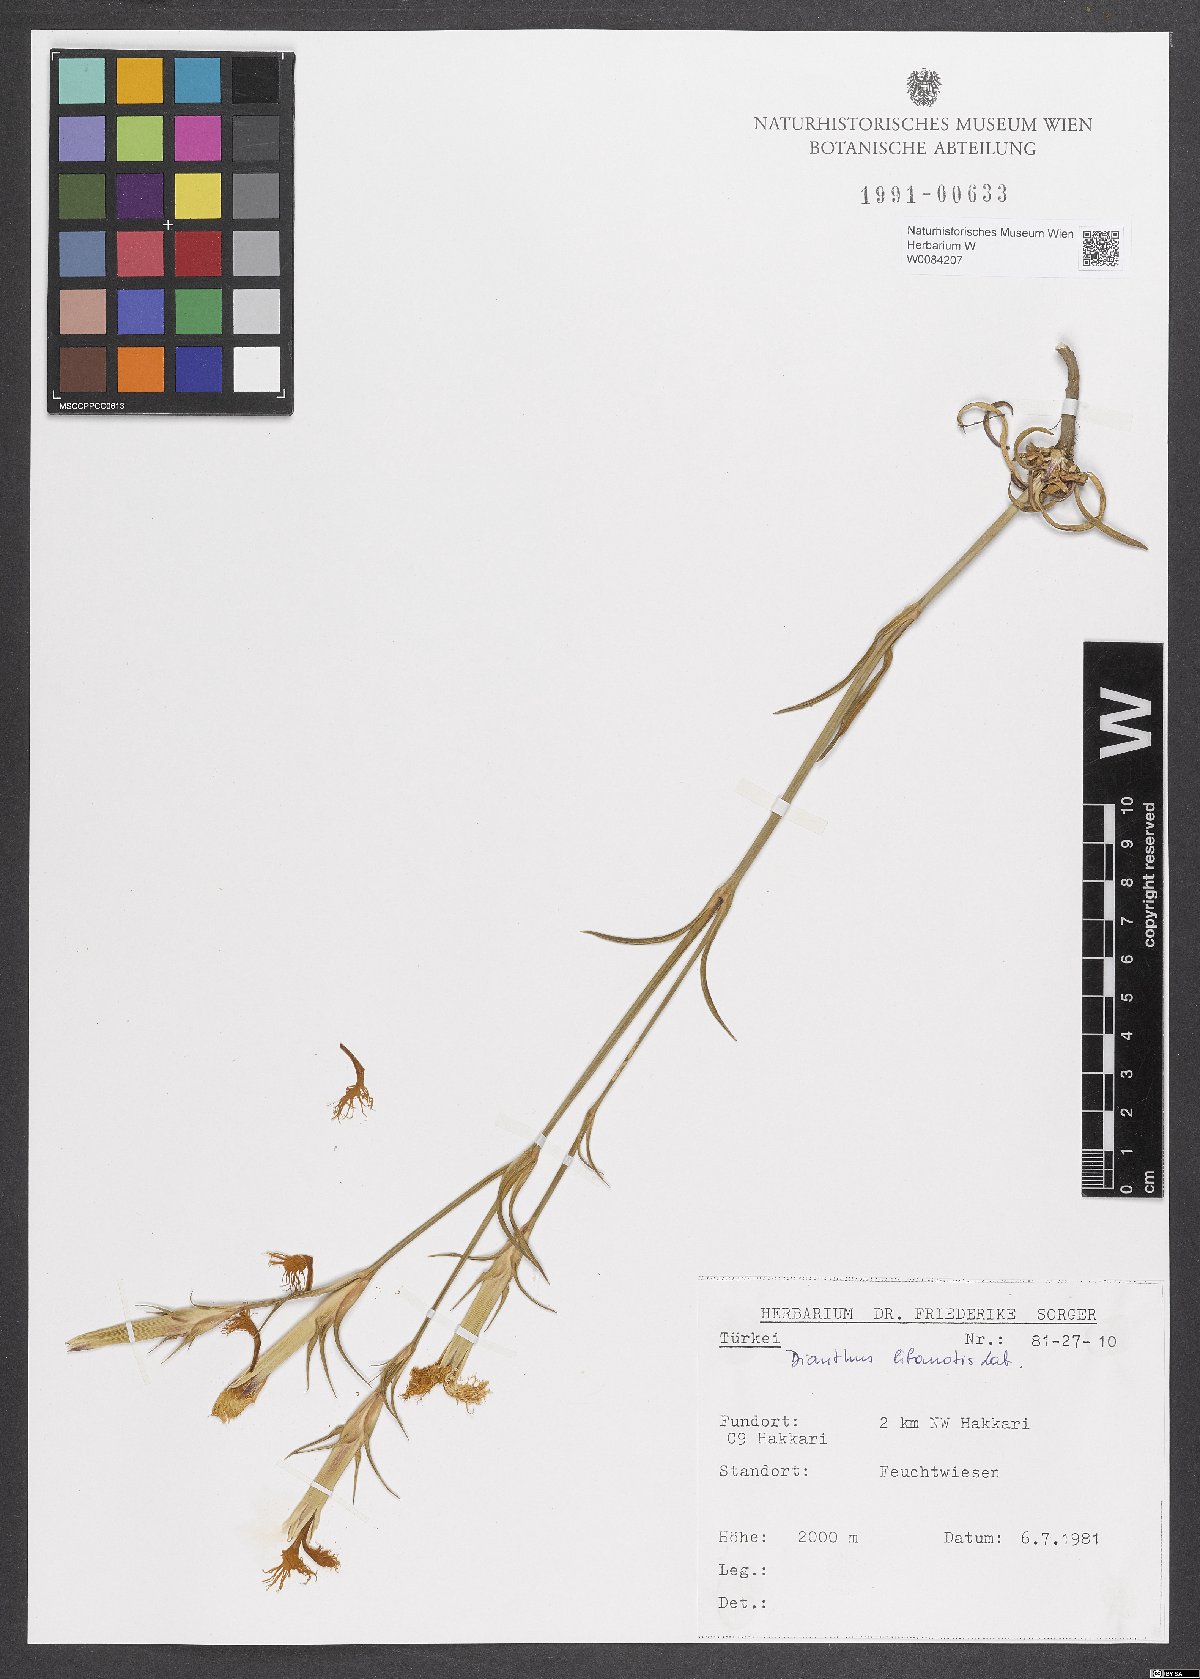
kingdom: Plantae
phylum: Tracheophyta
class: Magnoliopsida
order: Caryophyllales
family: Caryophyllaceae
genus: Dianthus
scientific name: Dianthus libanotis
